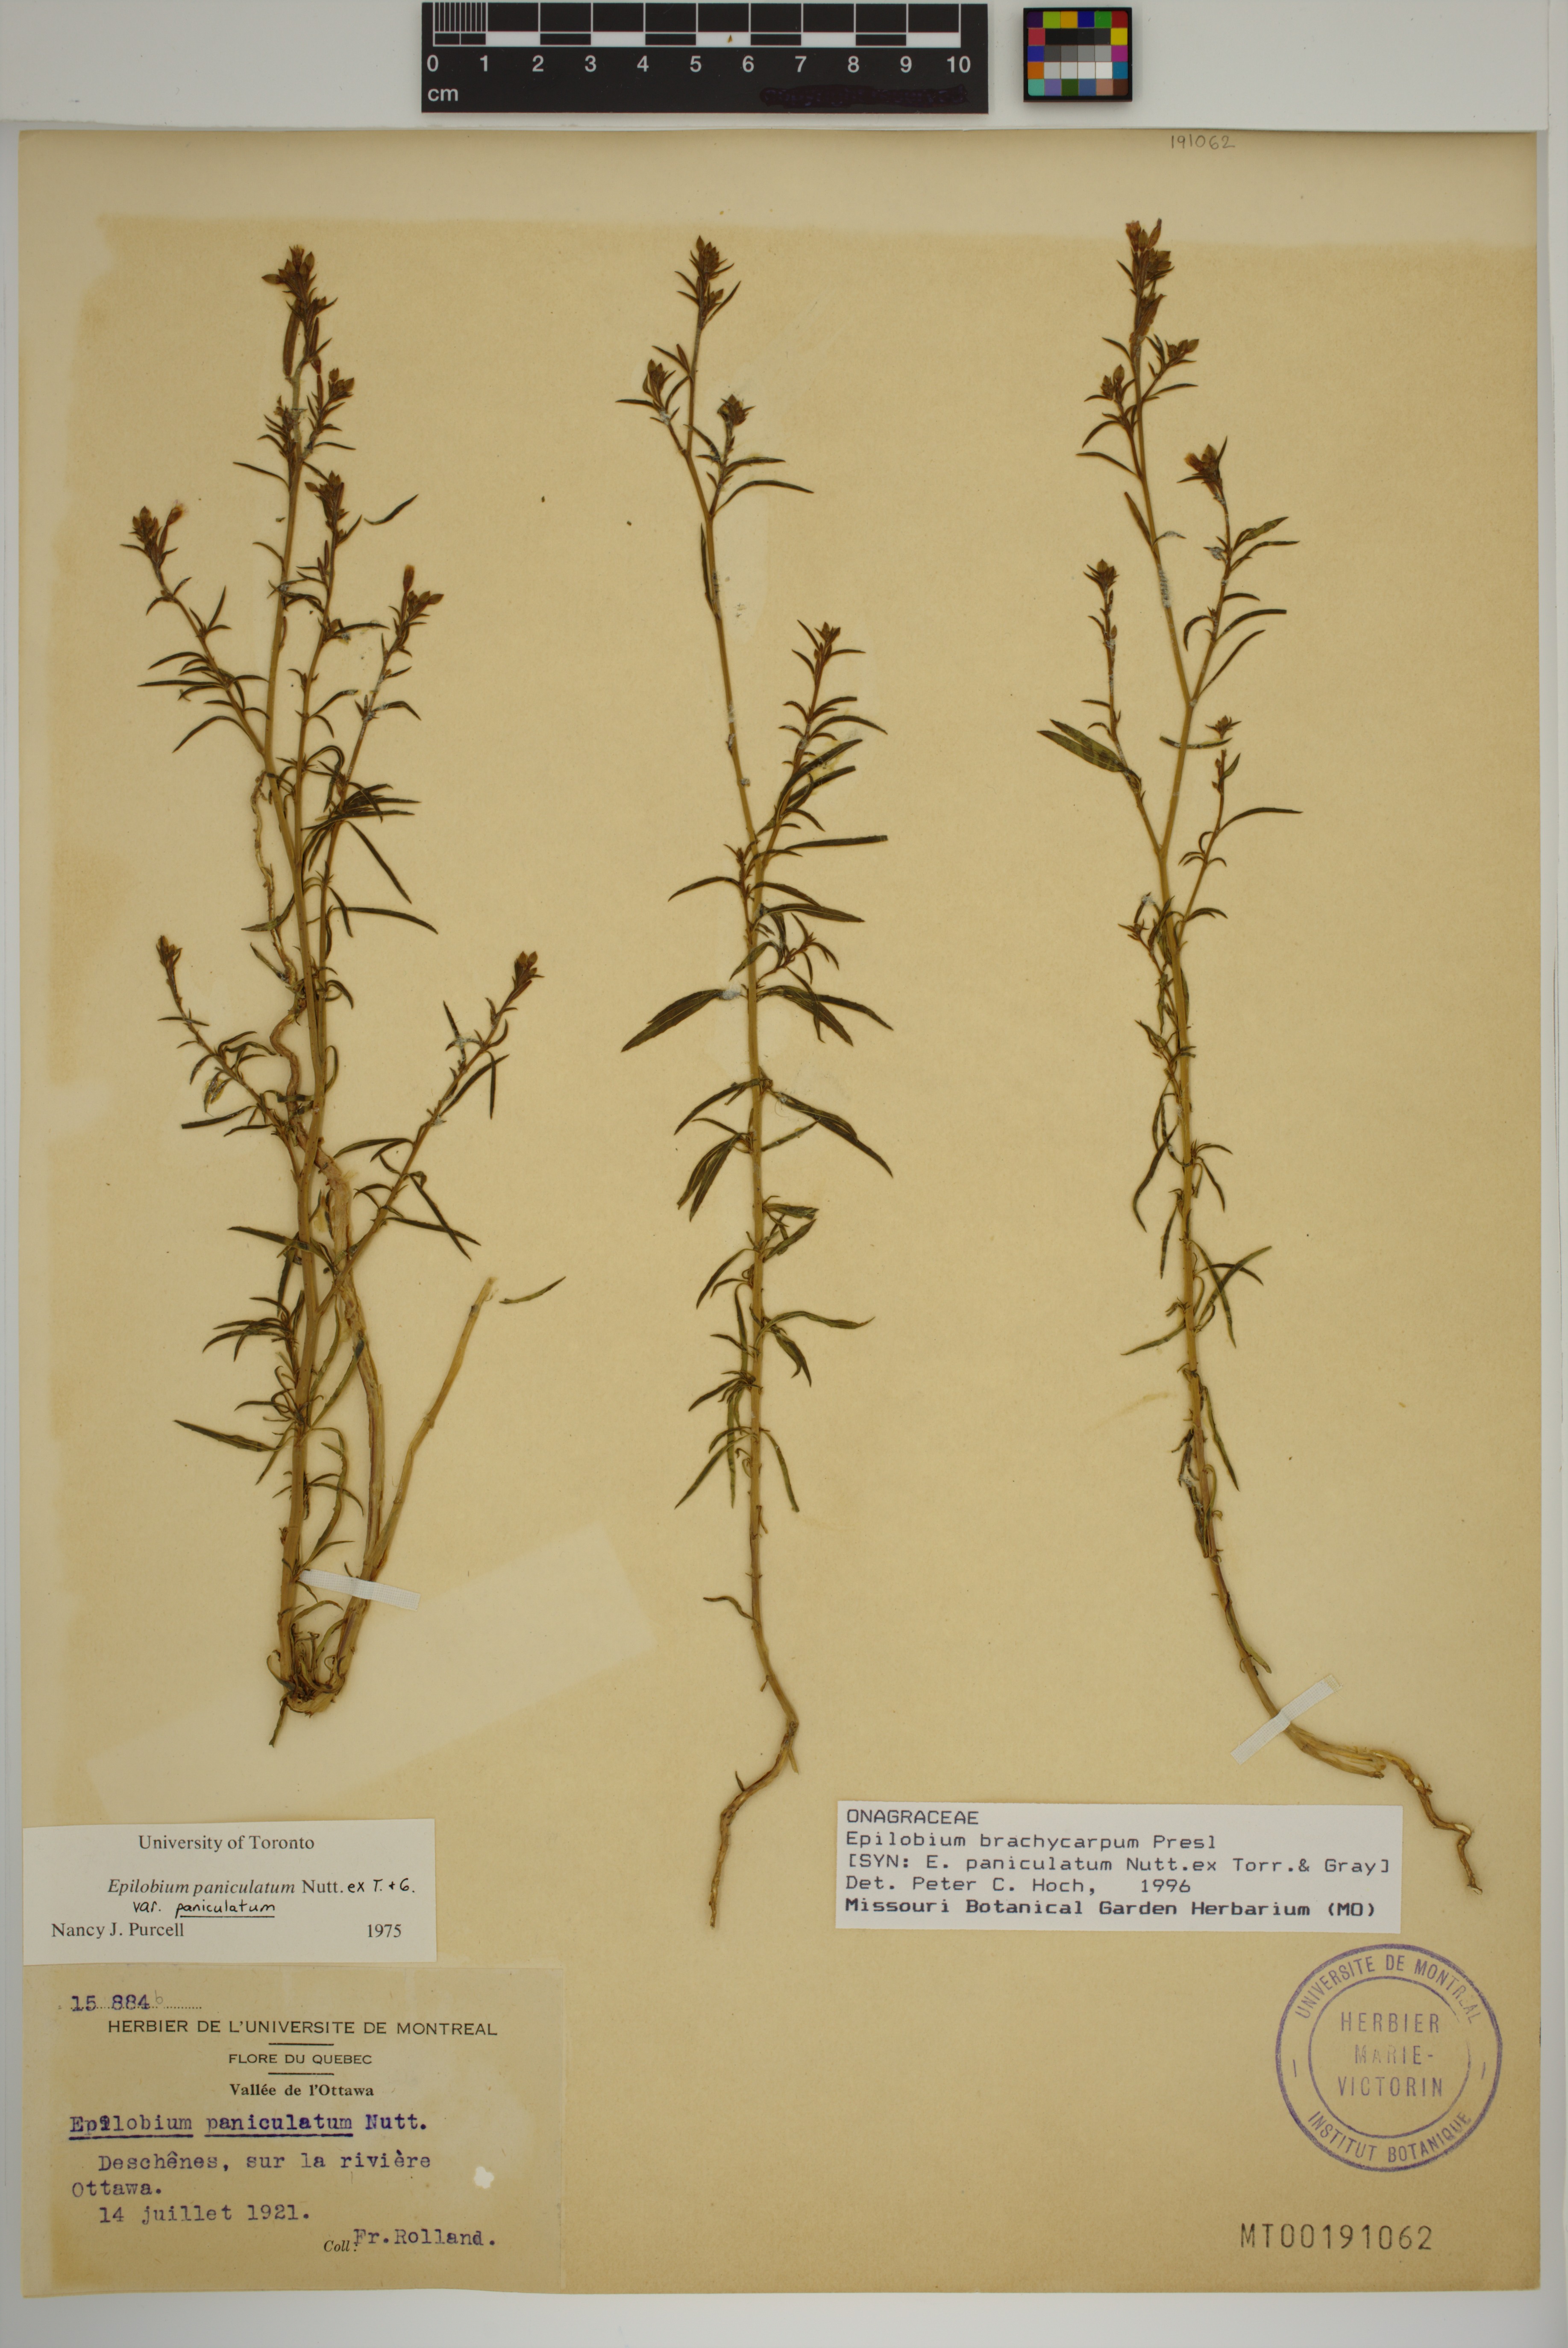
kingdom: Plantae
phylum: Tracheophyta
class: Magnoliopsida
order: Myrtales
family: Onagraceae
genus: Epilobium
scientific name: Epilobium brachycarpum
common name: Annual willowherb
